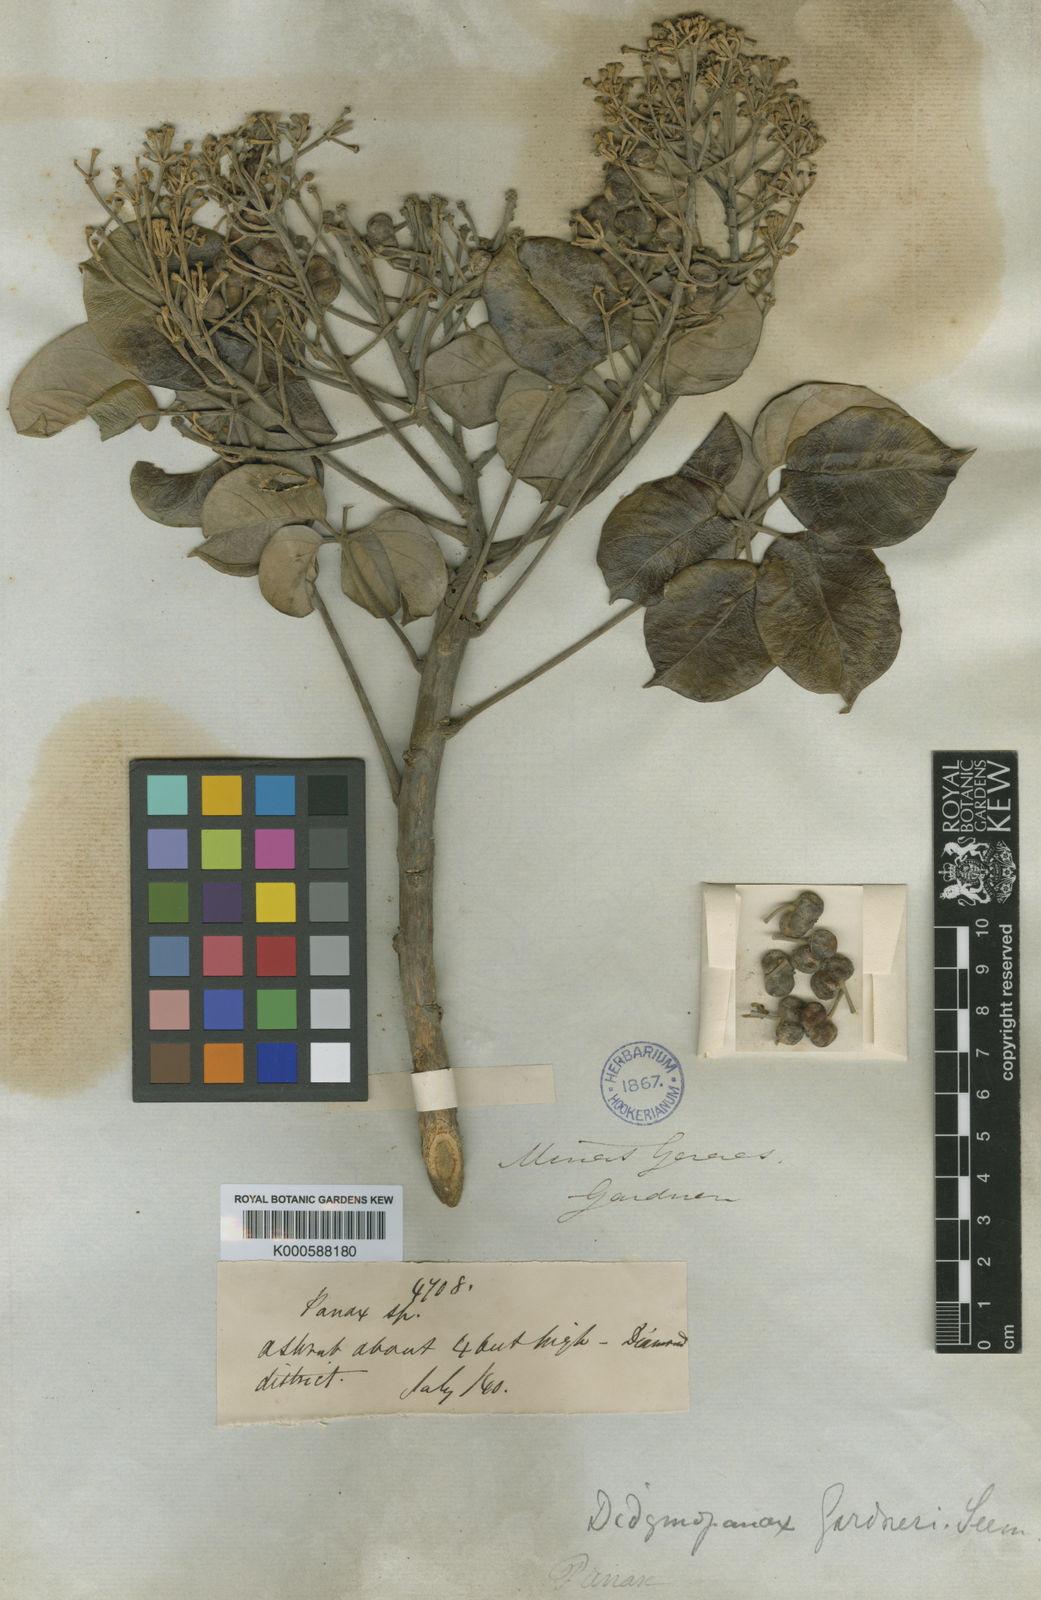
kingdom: Plantae
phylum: Tracheophyta
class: Magnoliopsida
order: Apiales
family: Araliaceae
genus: Didymopanax
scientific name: Didymopanax gardneri
